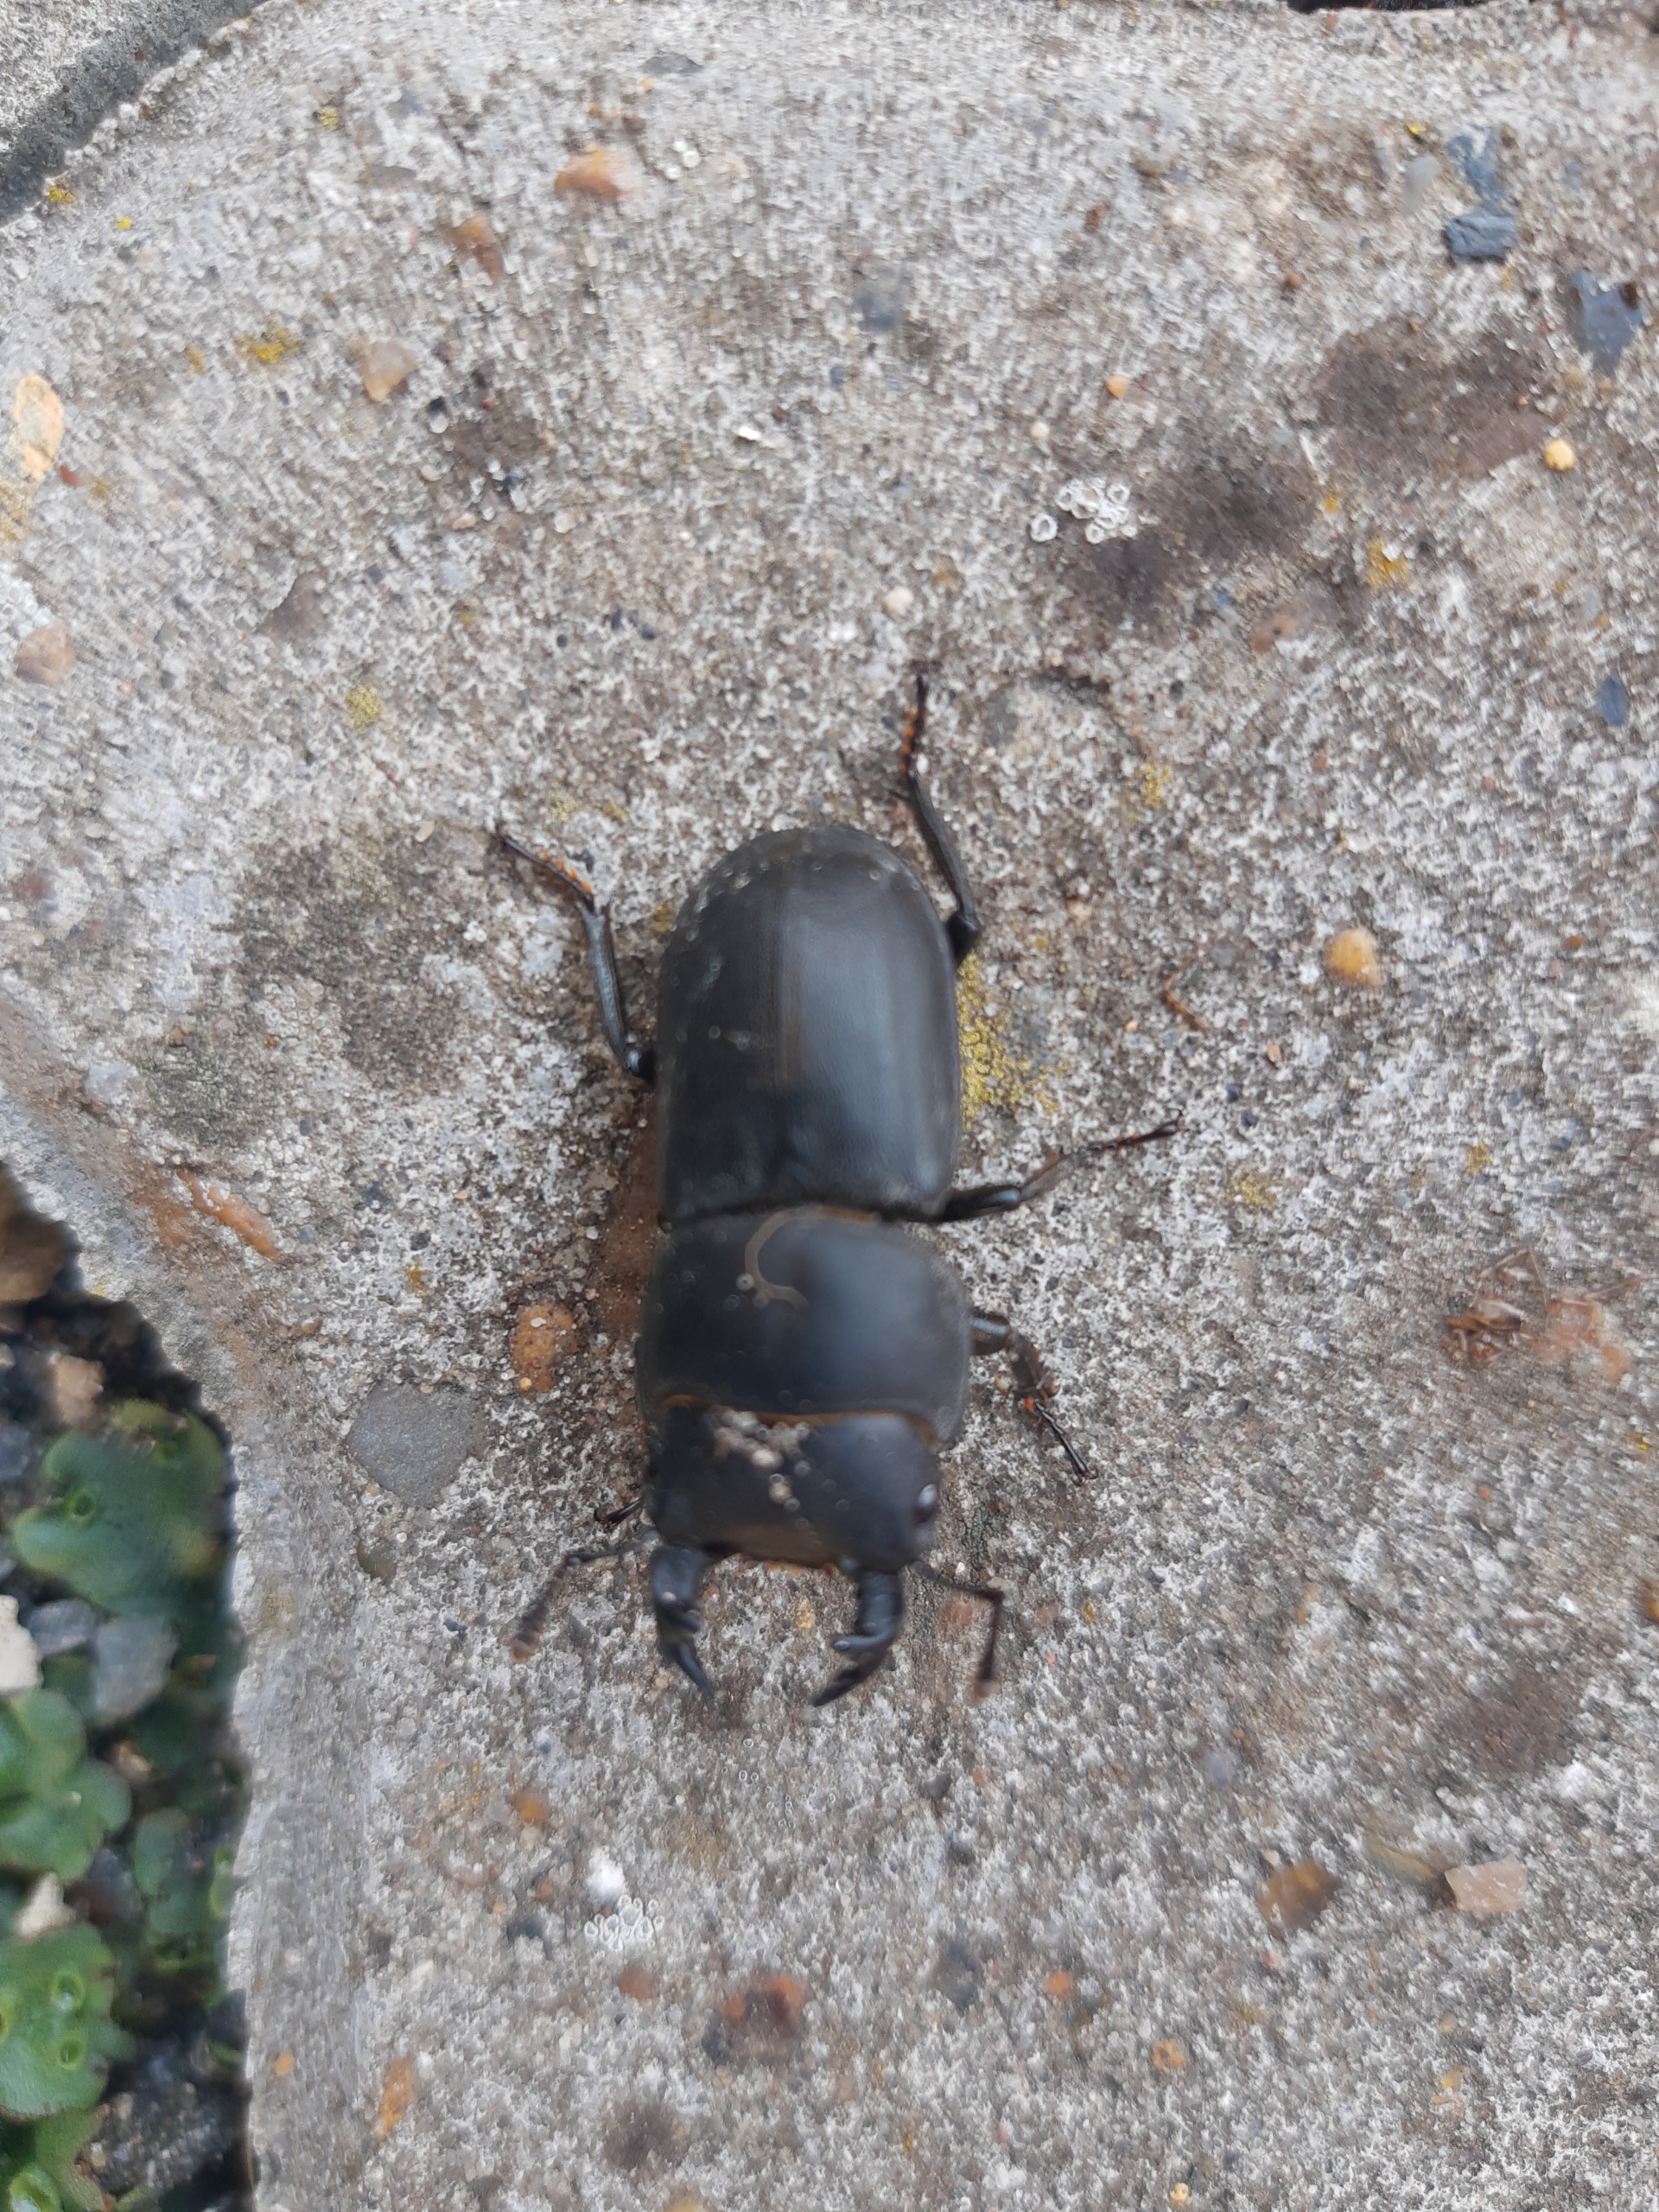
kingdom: Animalia
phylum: Arthropoda
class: Insecta
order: Coleoptera
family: Lucanidae
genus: Dorcus
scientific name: Dorcus parallelipipedus
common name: Bøghjort
